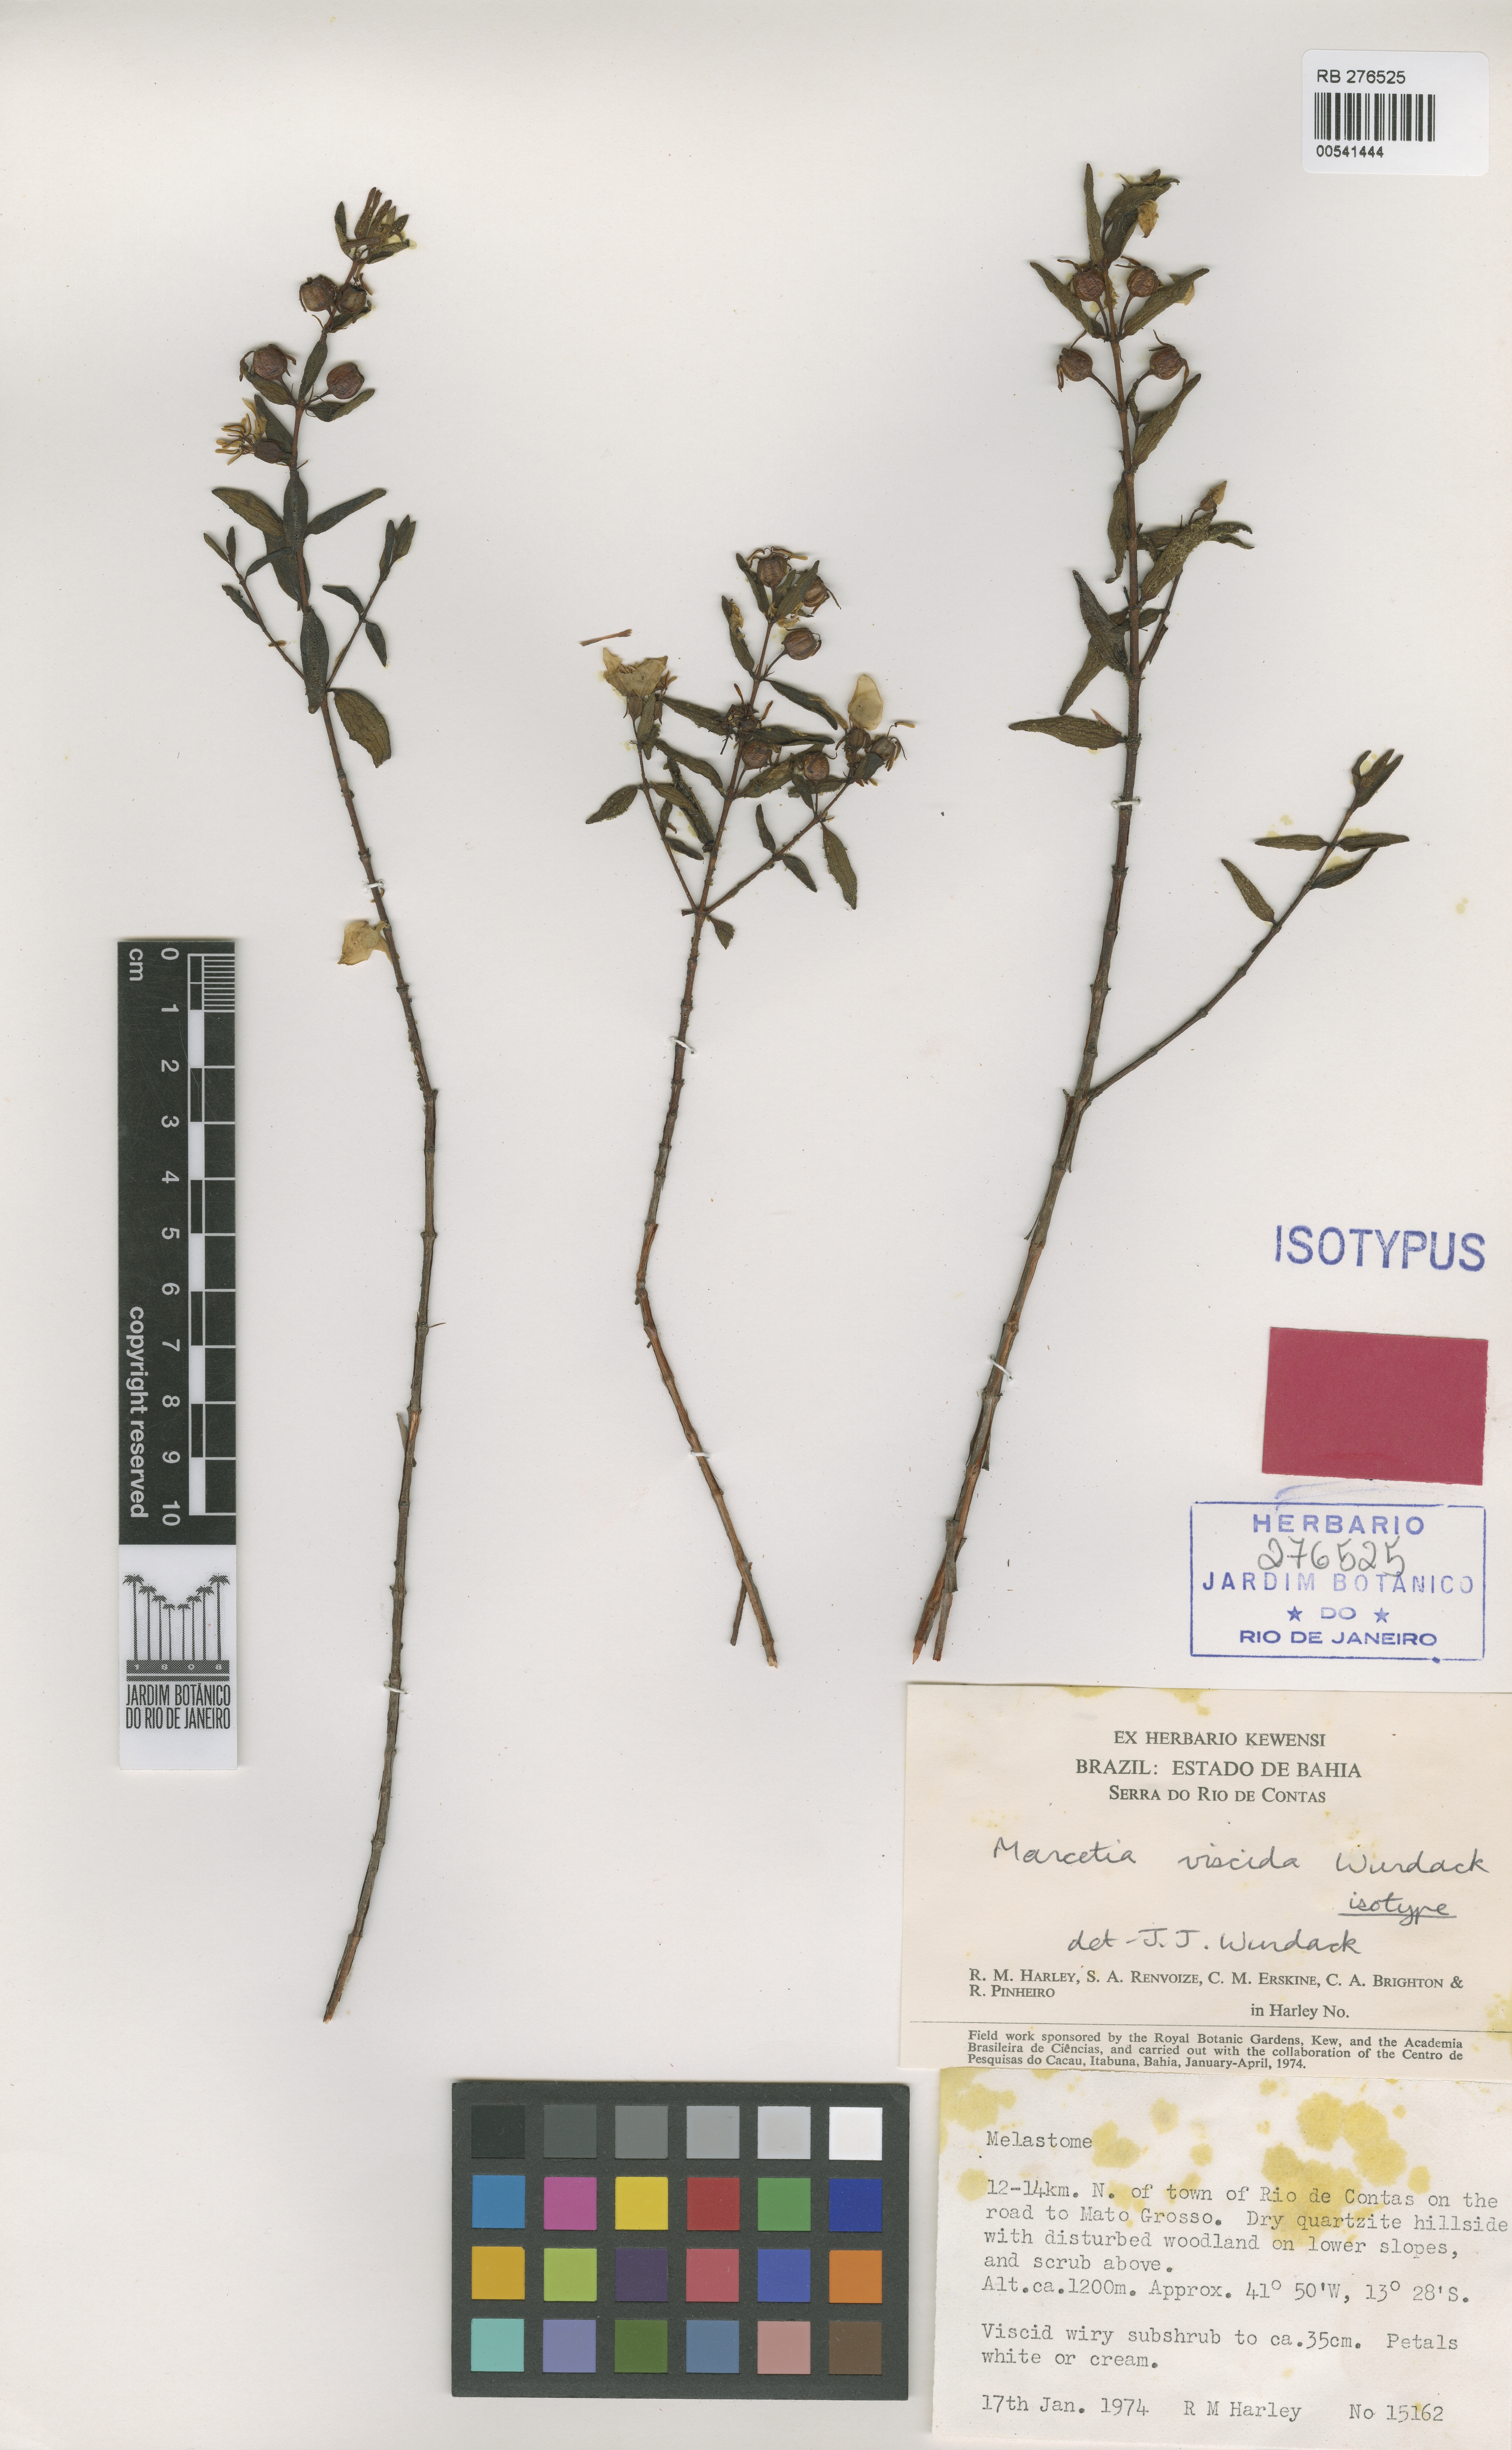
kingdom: Plantae
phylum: Tracheophyta
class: Magnoliopsida
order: Myrtales
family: Melastomataceae
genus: Marcetia
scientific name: Marcetia viscida
